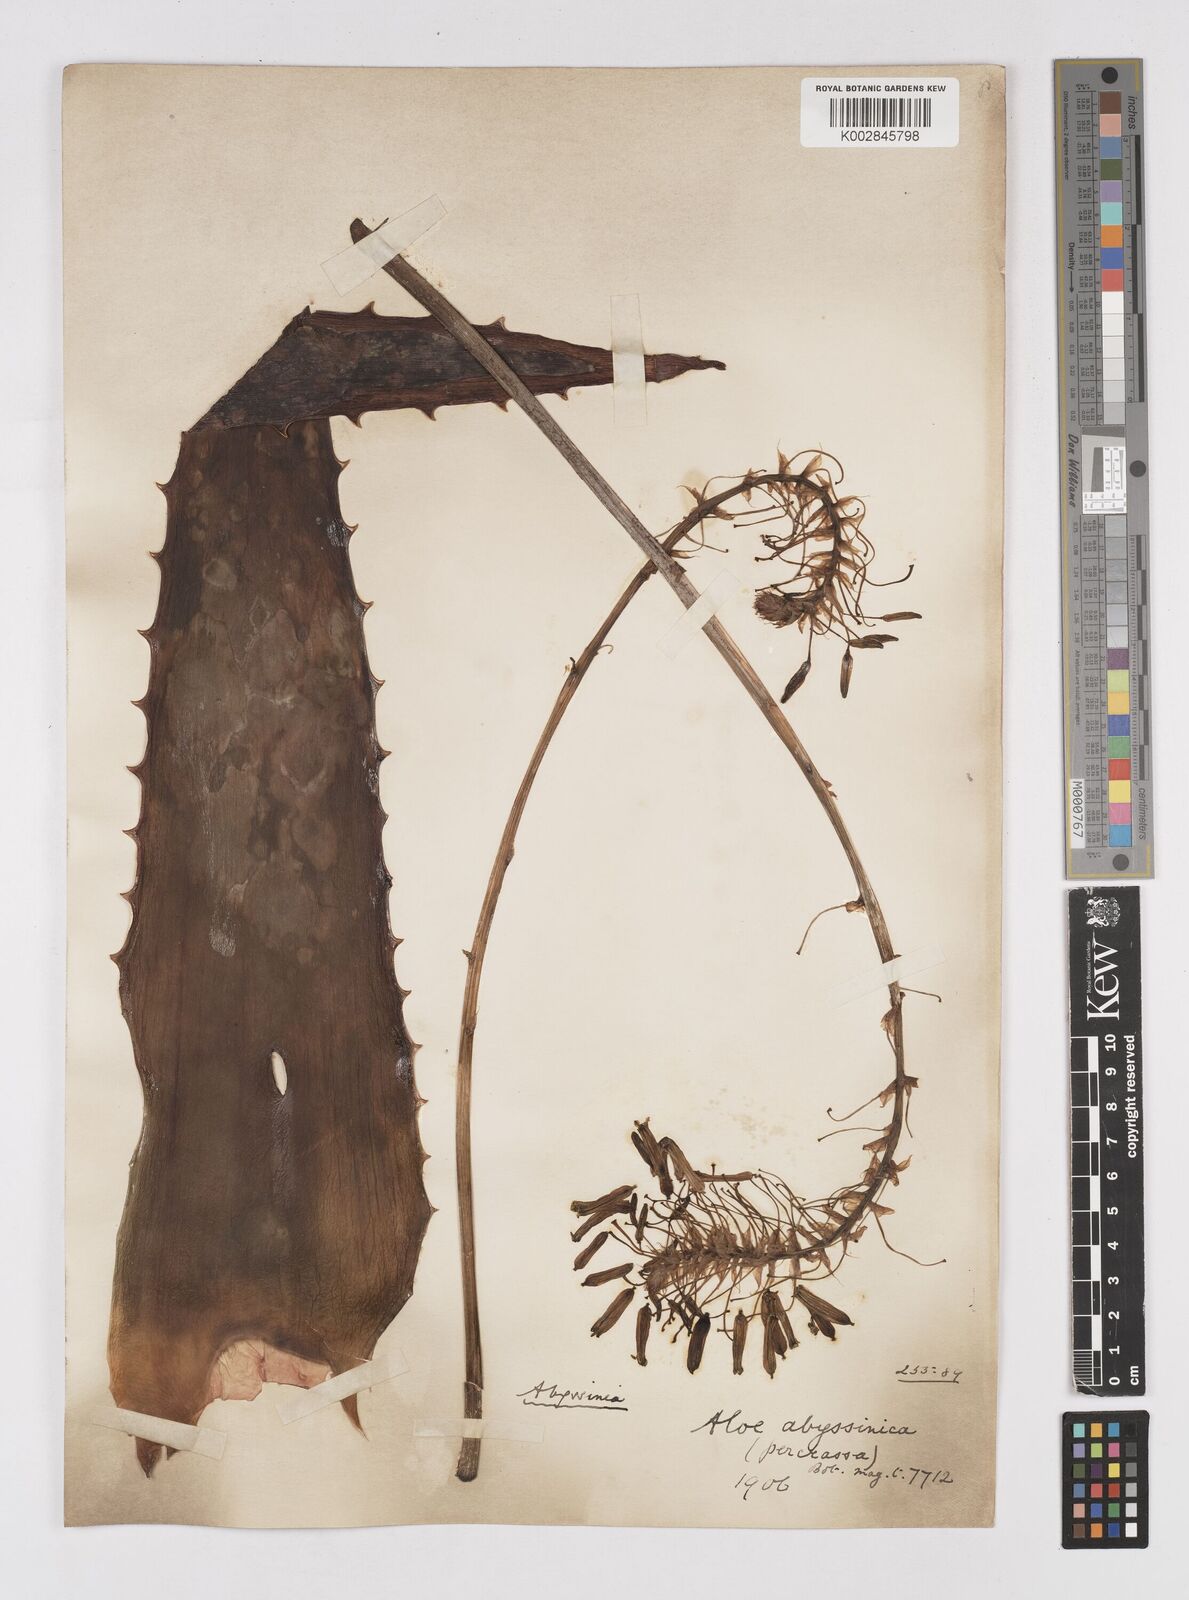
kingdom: Plantae
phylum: Tracheophyta
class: Liliopsida
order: Asparagales
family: Asphodelaceae
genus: Aloe
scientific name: Aloe percrassa
